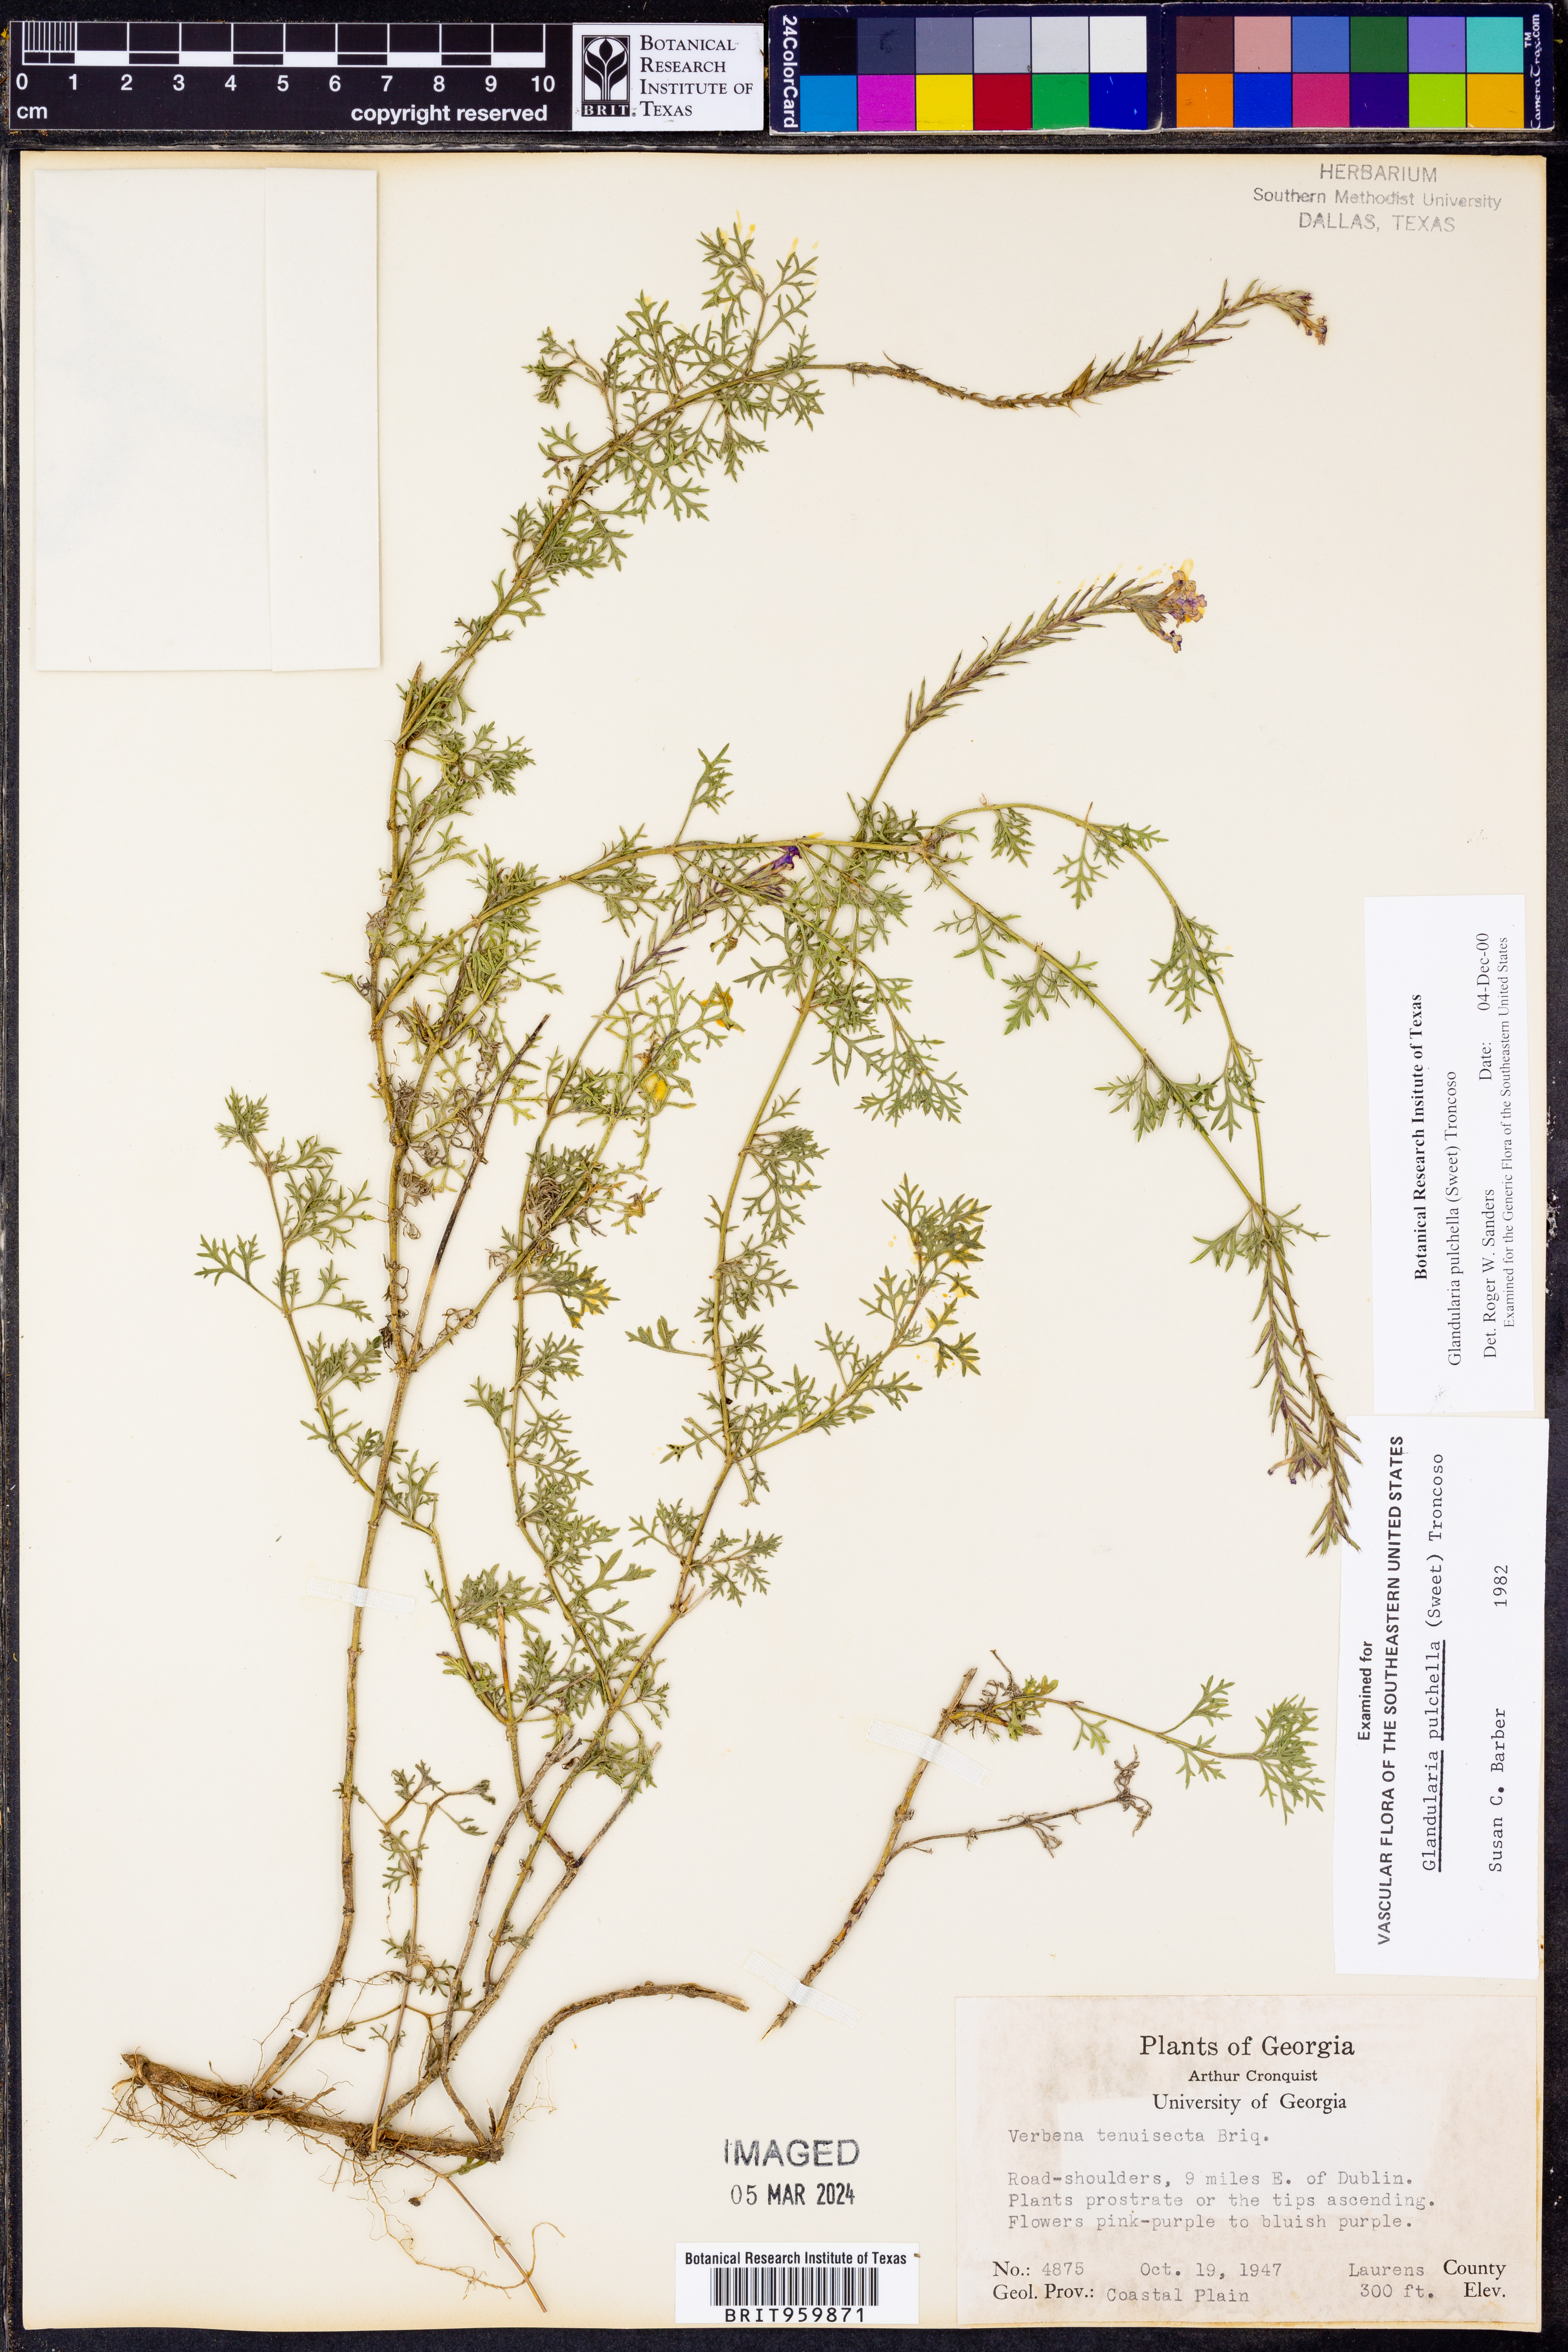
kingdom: Plantae
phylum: Tracheophyta
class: Magnoliopsida
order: Lamiales
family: Verbenaceae
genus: Verbena
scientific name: Verbena tenera
